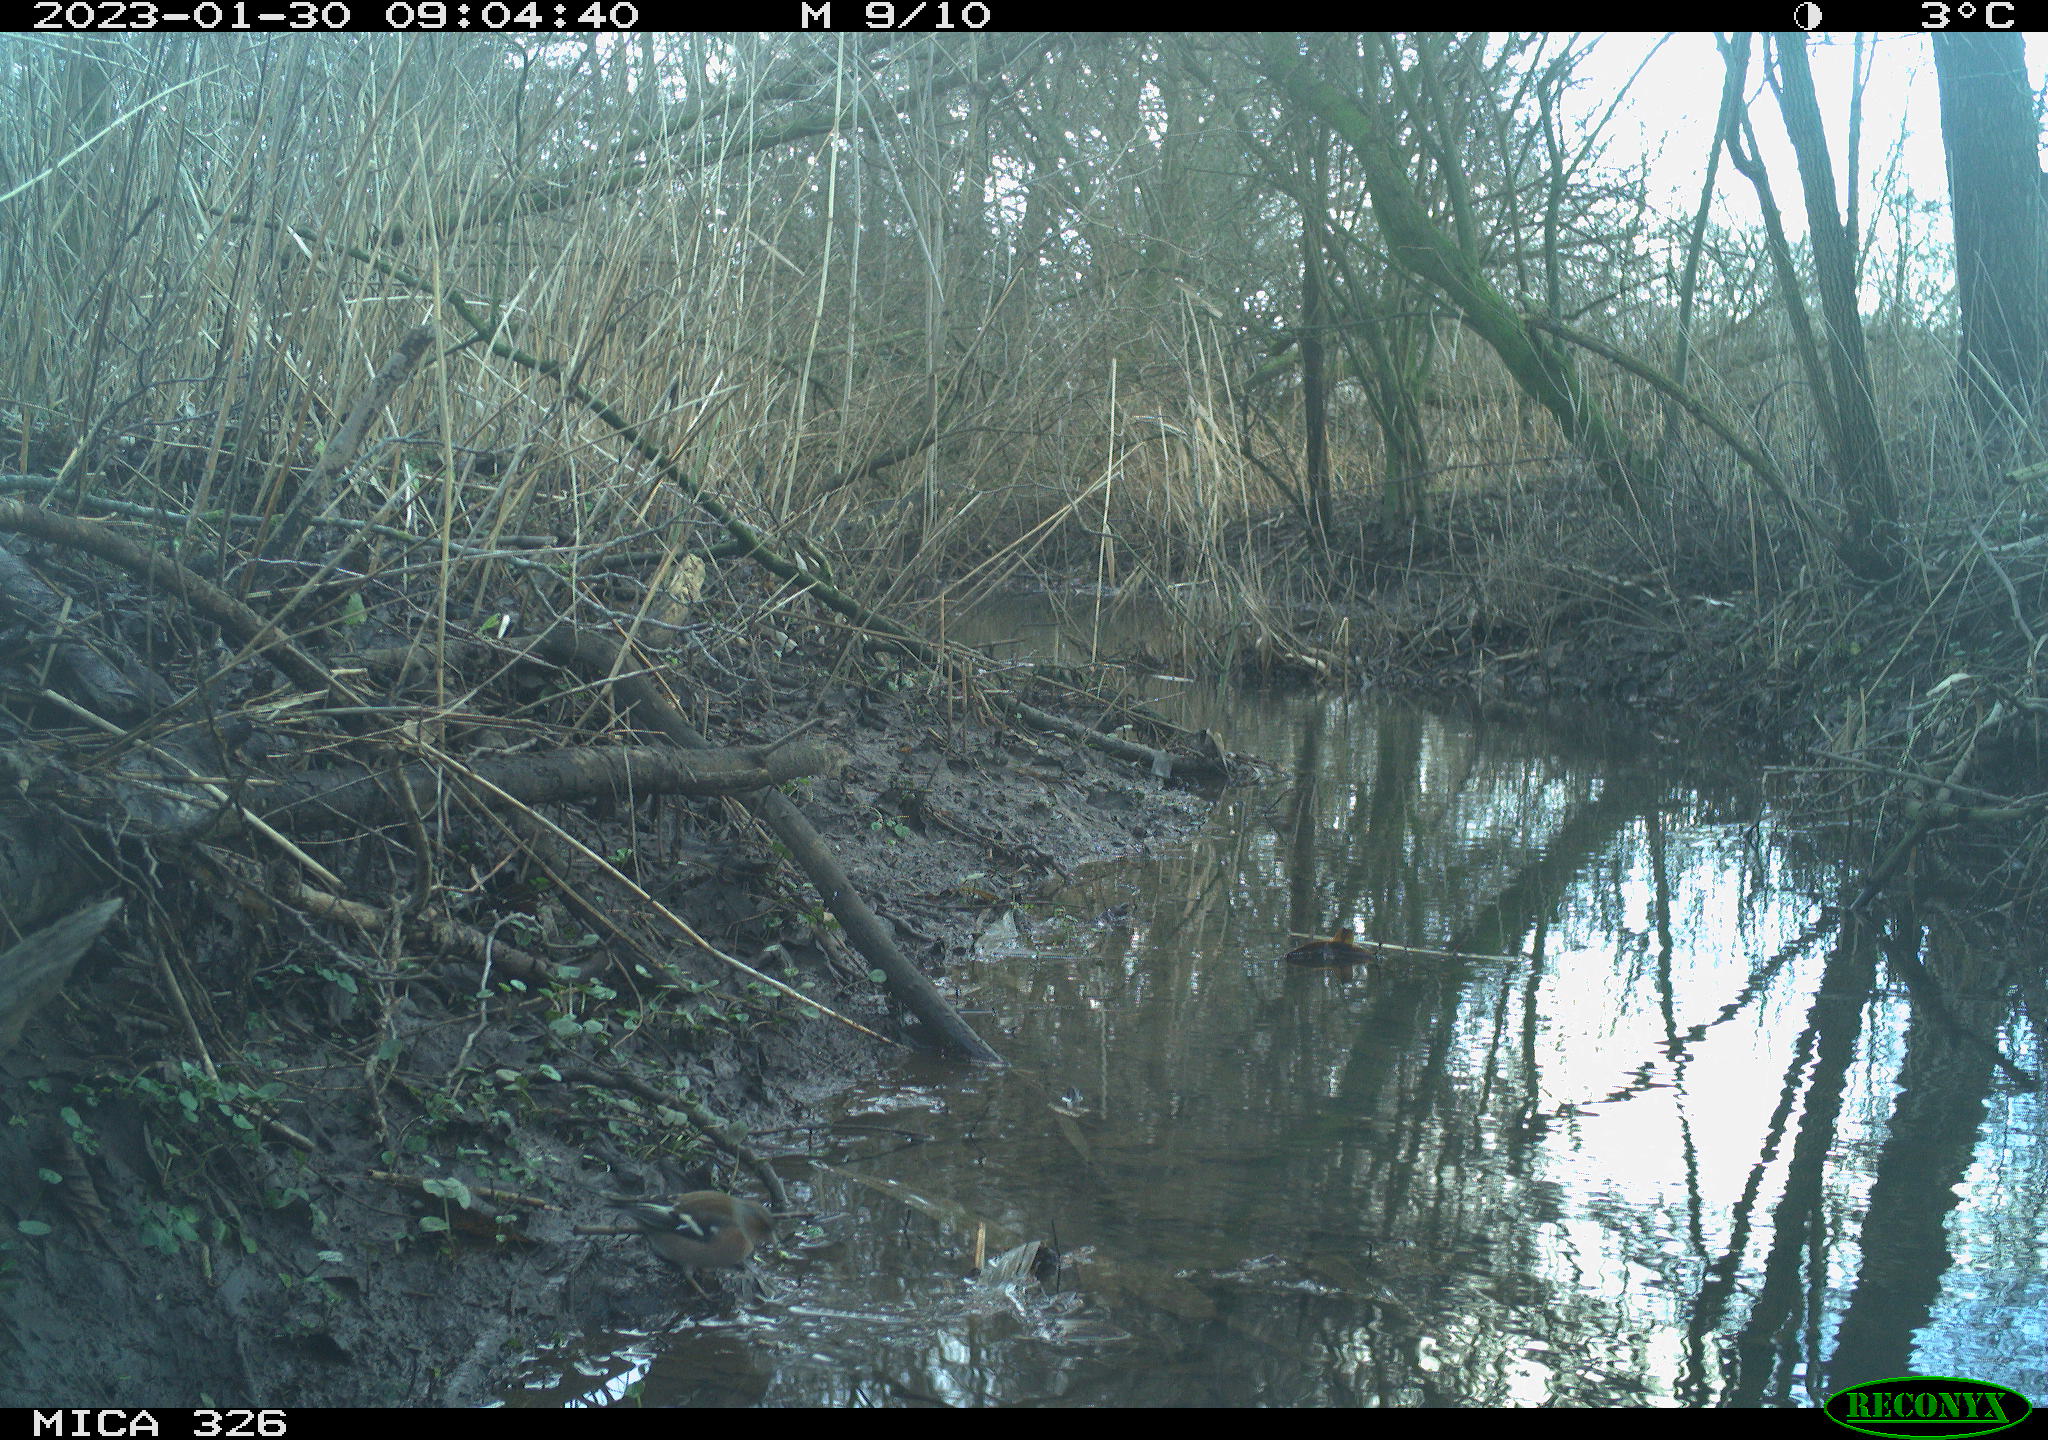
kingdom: Animalia
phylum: Chordata
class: Aves
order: Passeriformes
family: Fringillidae
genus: Fringilla
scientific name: Fringilla coelebs
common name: Common chaffinch
